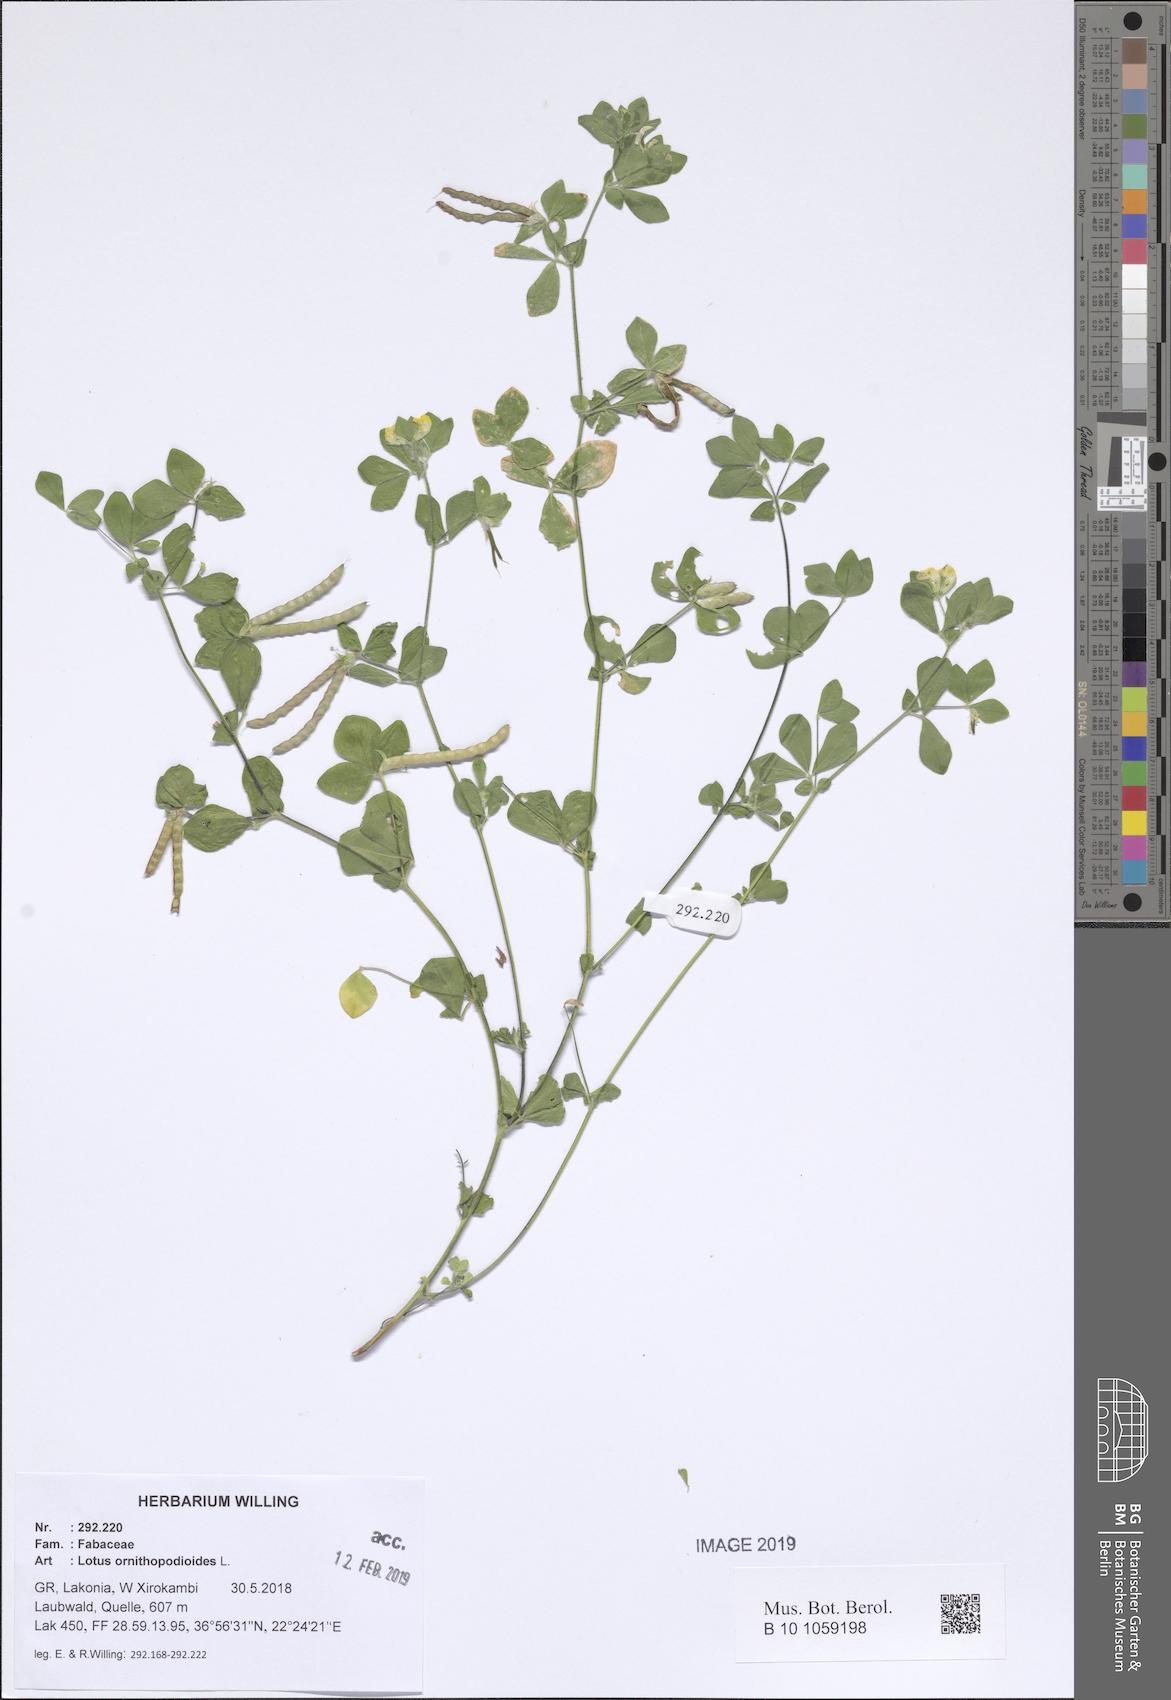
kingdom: Plantae
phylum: Tracheophyta
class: Magnoliopsida
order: Fabales
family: Fabaceae
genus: Lotus
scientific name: Lotus ornithopodioides
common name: Southern bird's-foot trefoil
